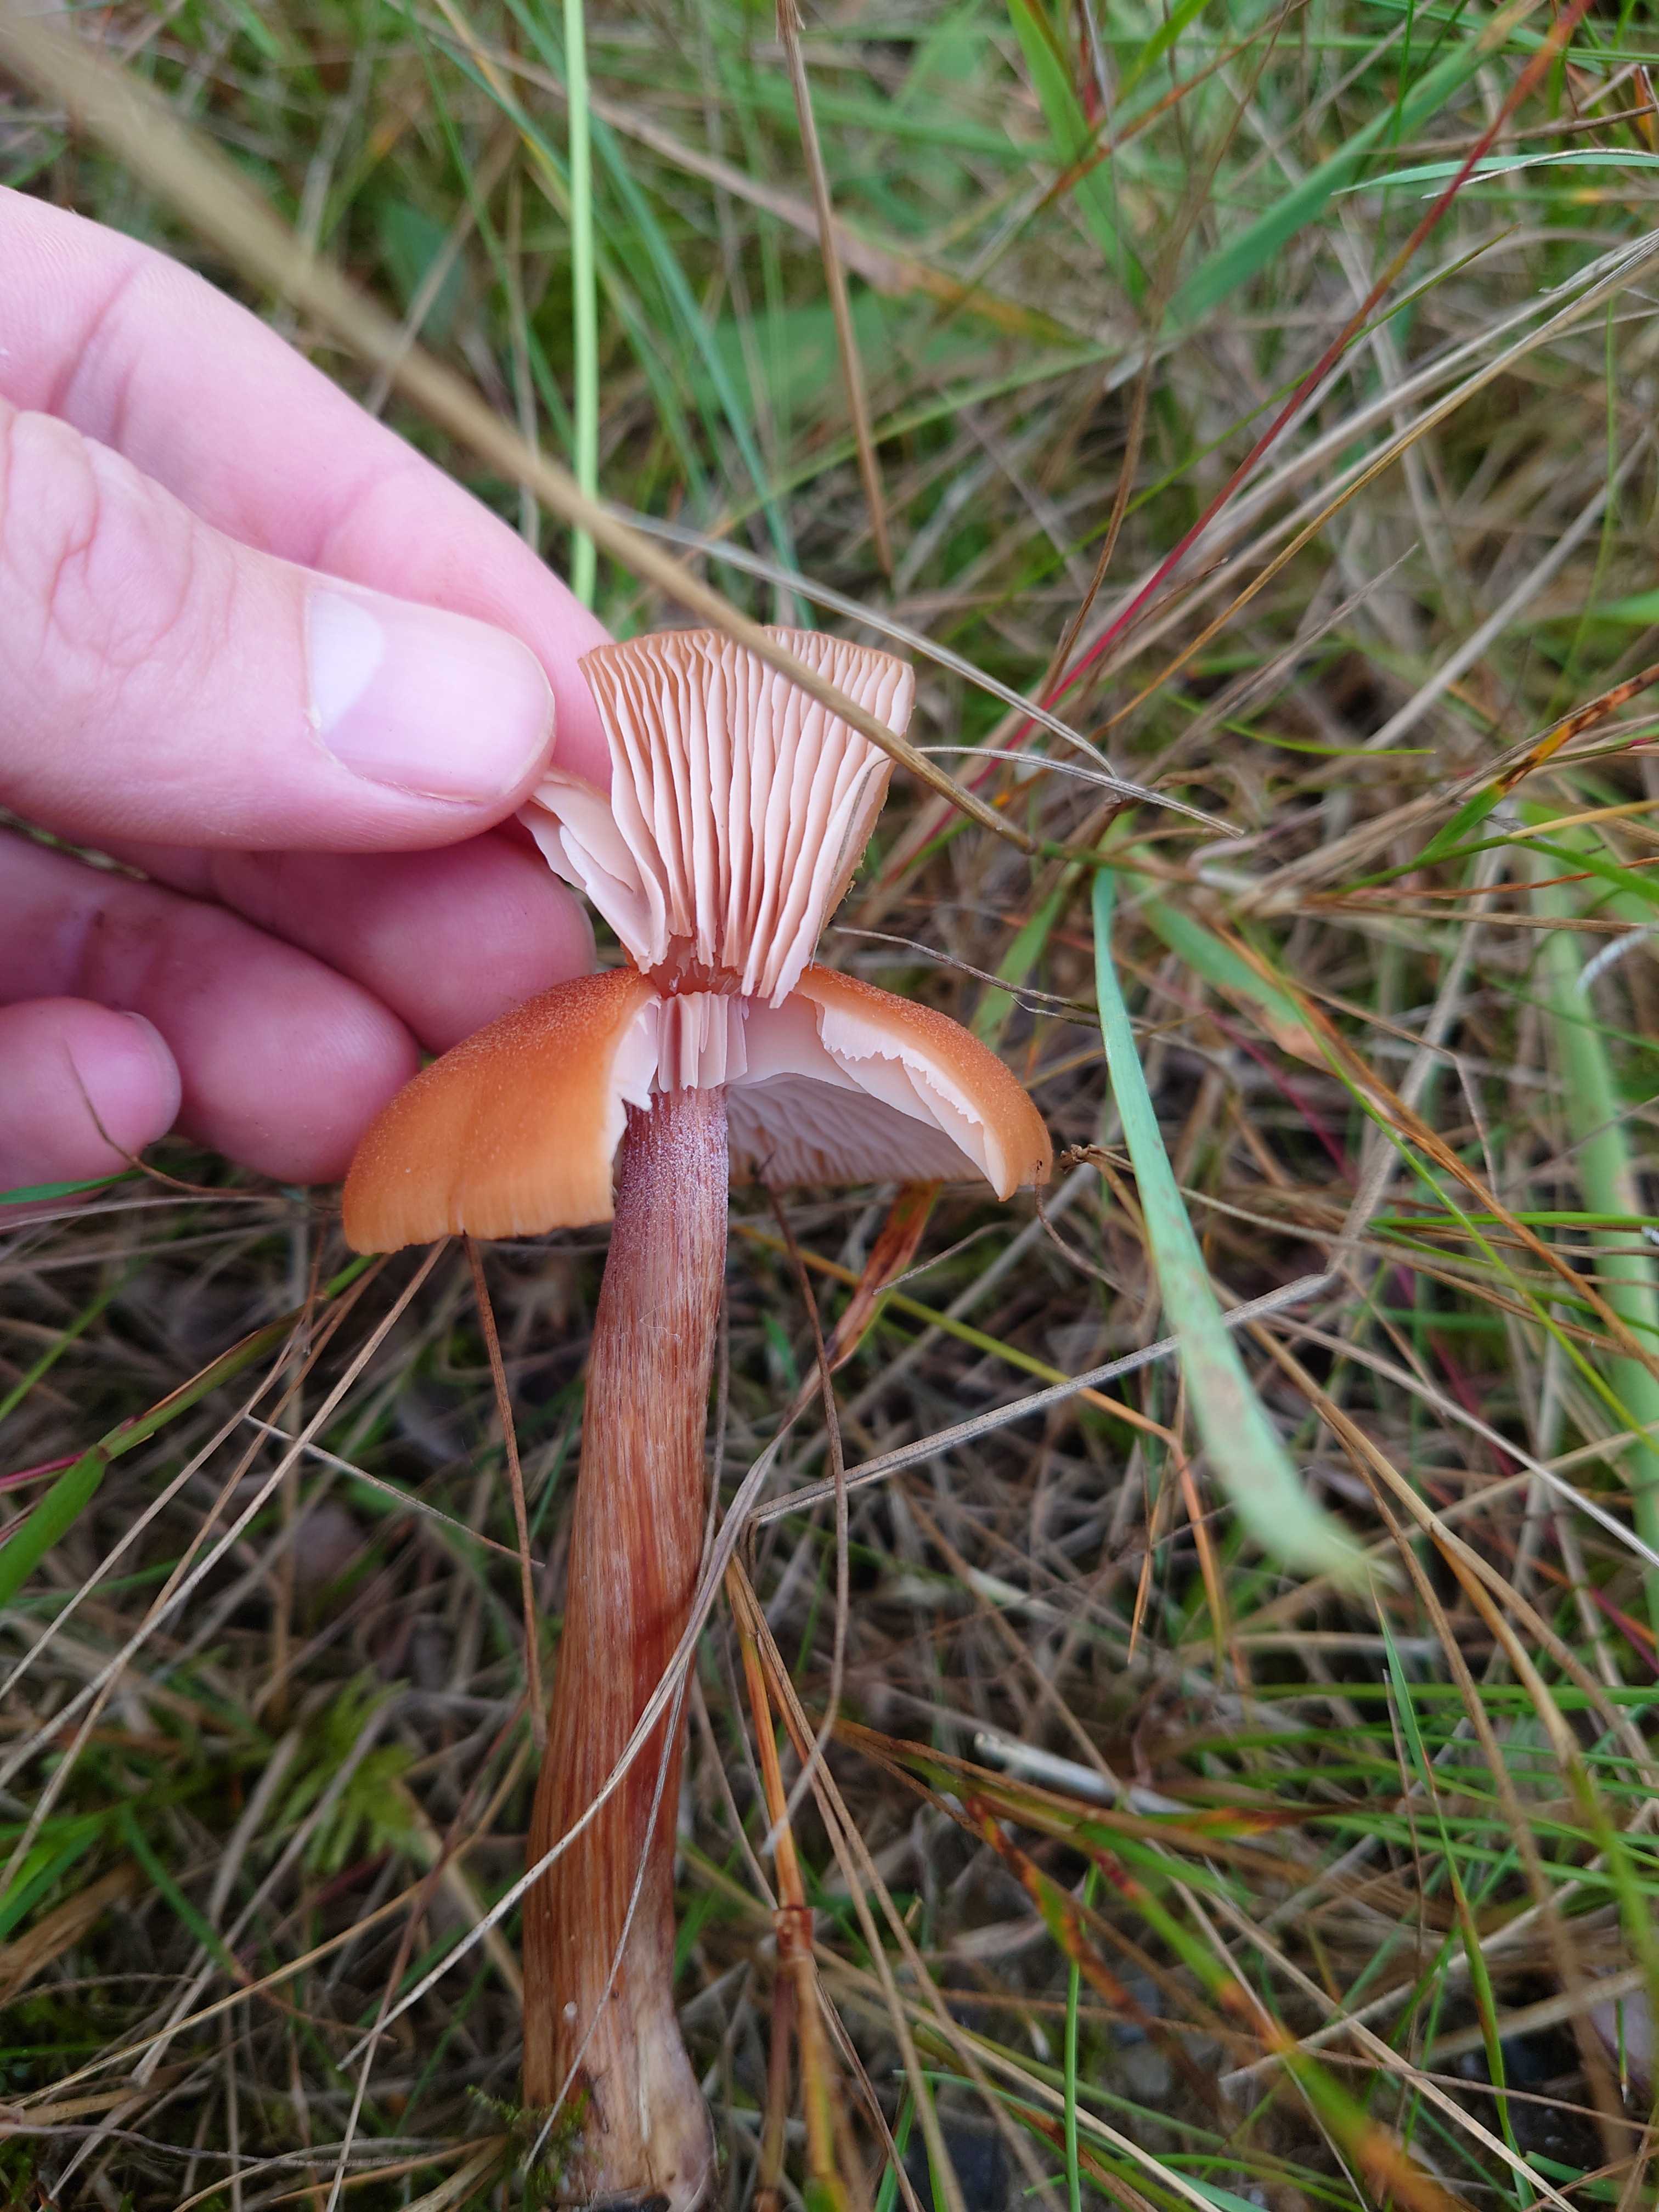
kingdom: Fungi
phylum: Basidiomycota
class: Agaricomycetes
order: Agaricales
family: Hydnangiaceae
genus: Laccaria
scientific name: Laccaria
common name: ametysthat
